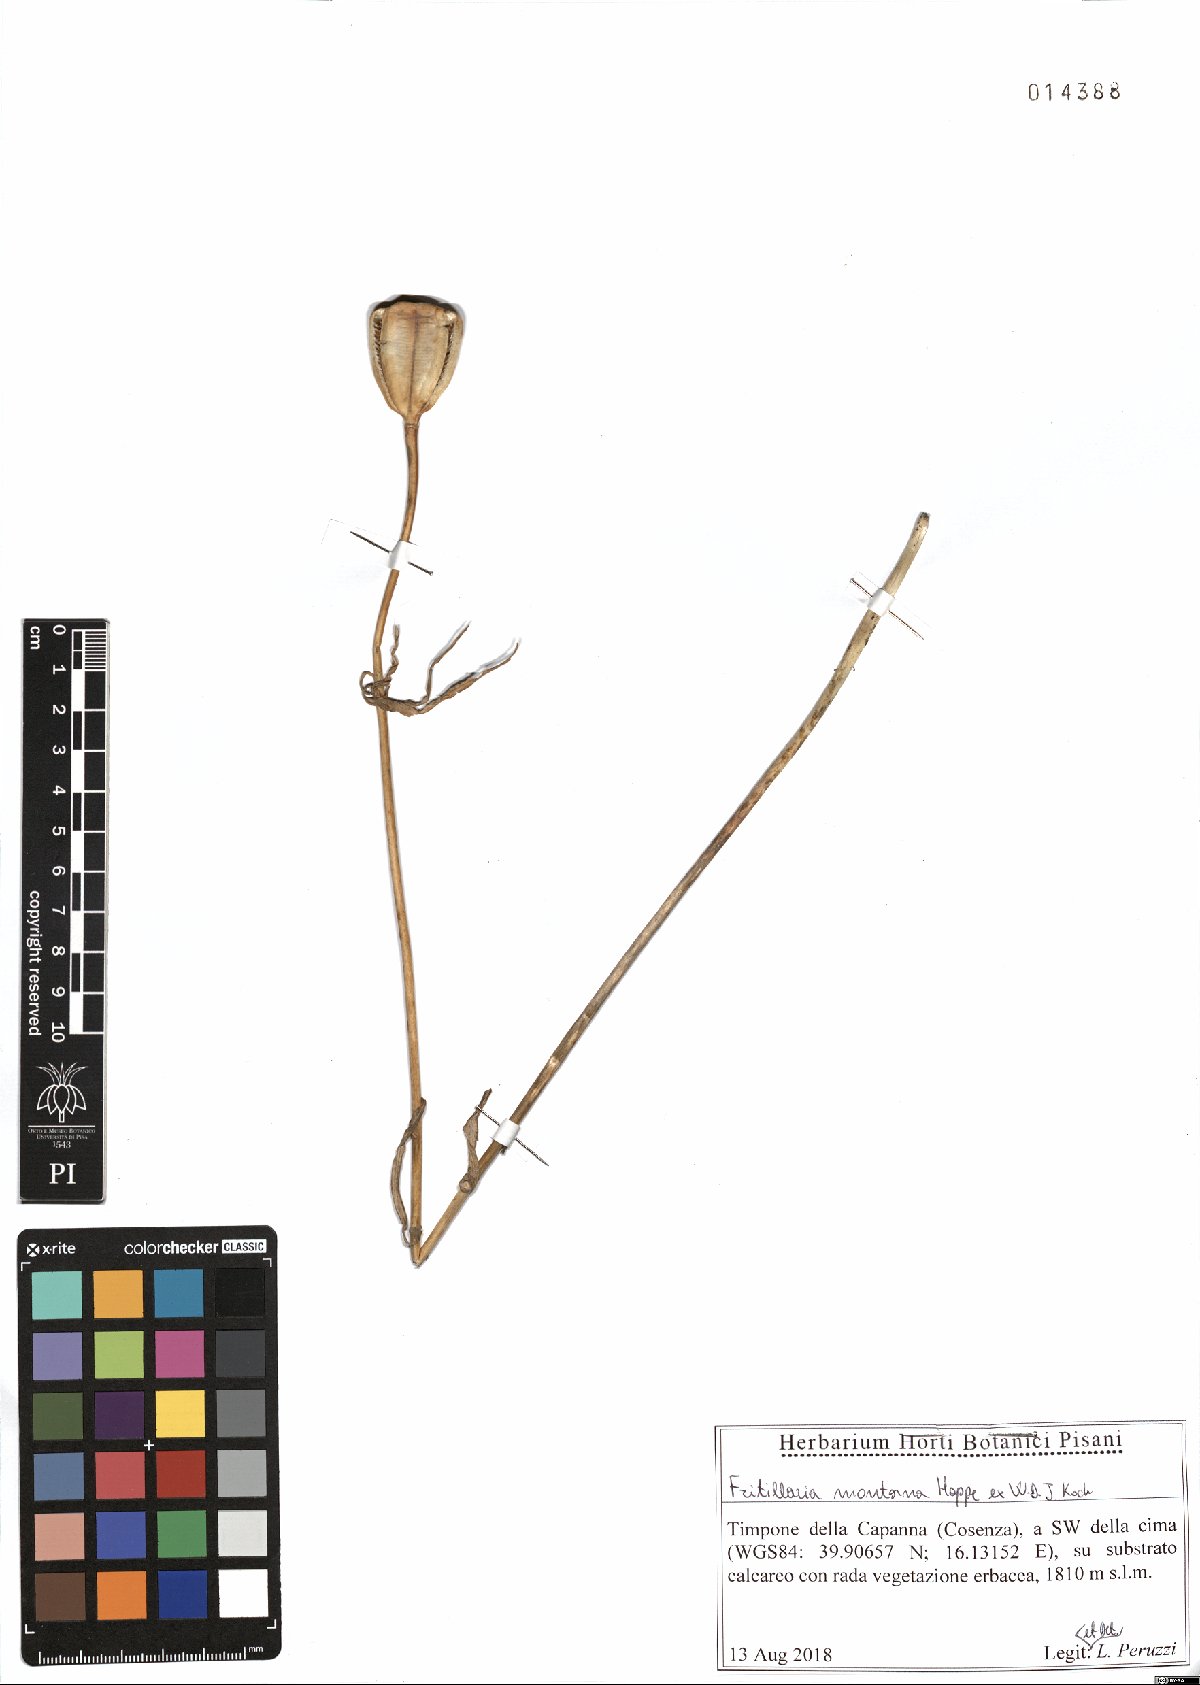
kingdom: Plantae
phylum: Tracheophyta
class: Liliopsida
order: Liliales
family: Liliaceae
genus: Fritillaria
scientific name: Fritillaria montana
